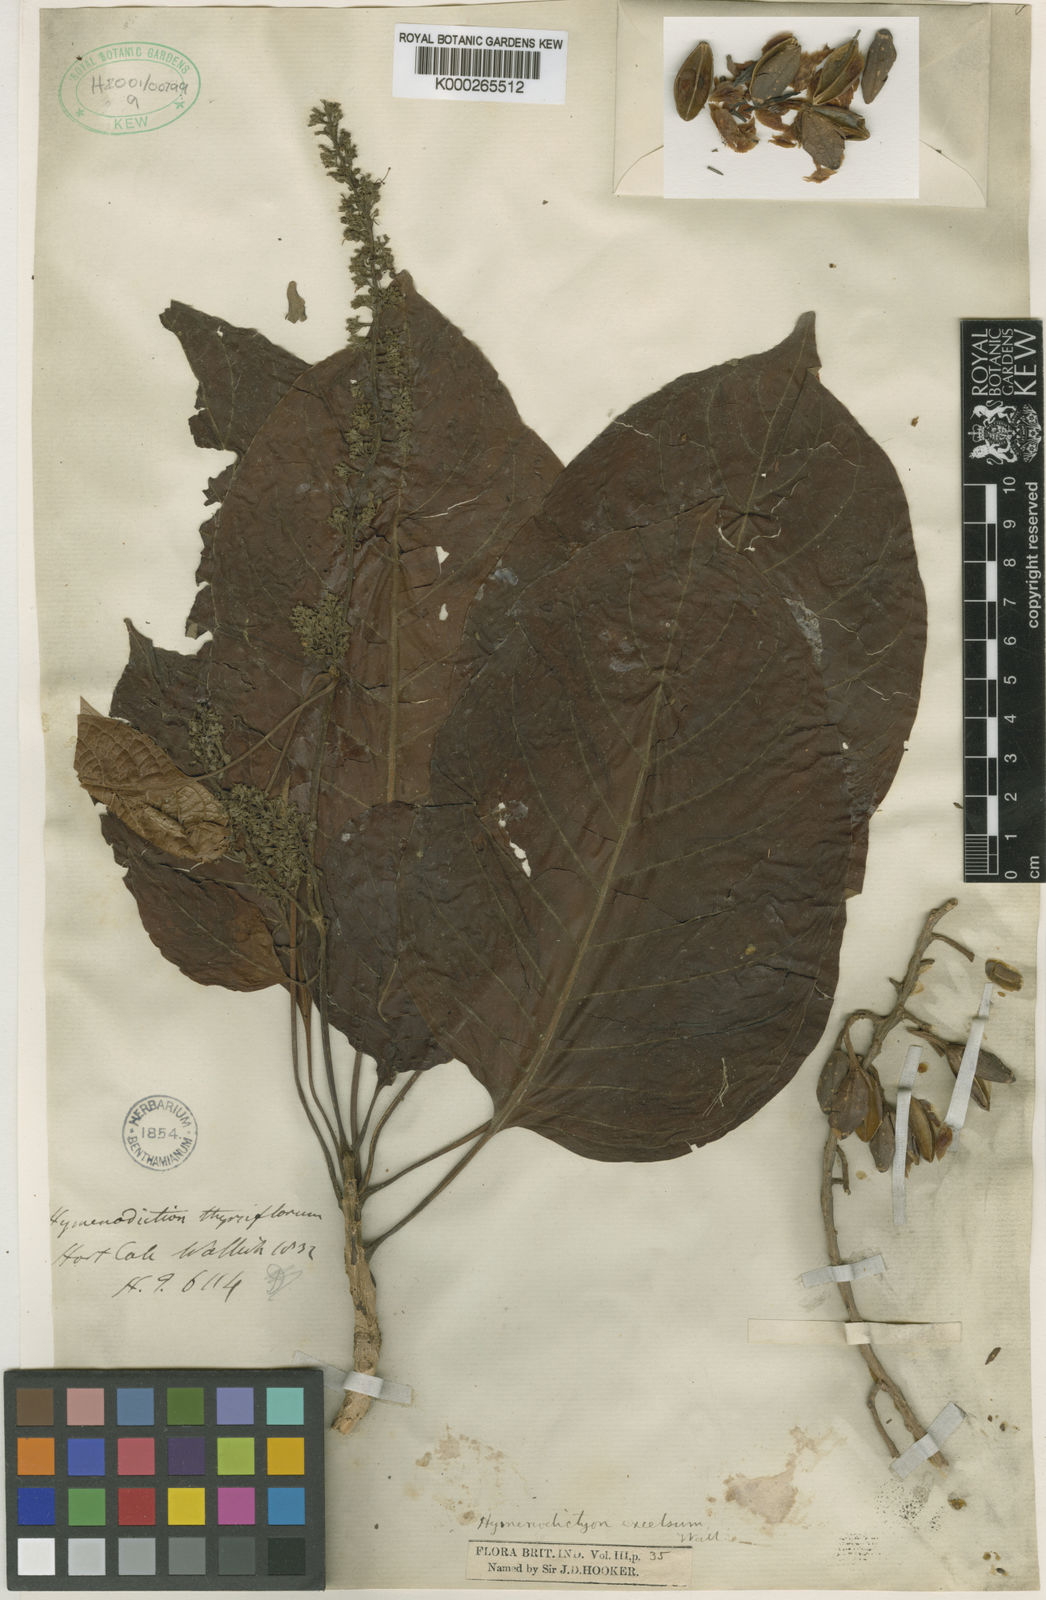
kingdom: Plantae
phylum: Tracheophyta
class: Magnoliopsida
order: Gentianales
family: Rubiaceae
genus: Hymenodictyon
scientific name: Hymenodictyon orixense
